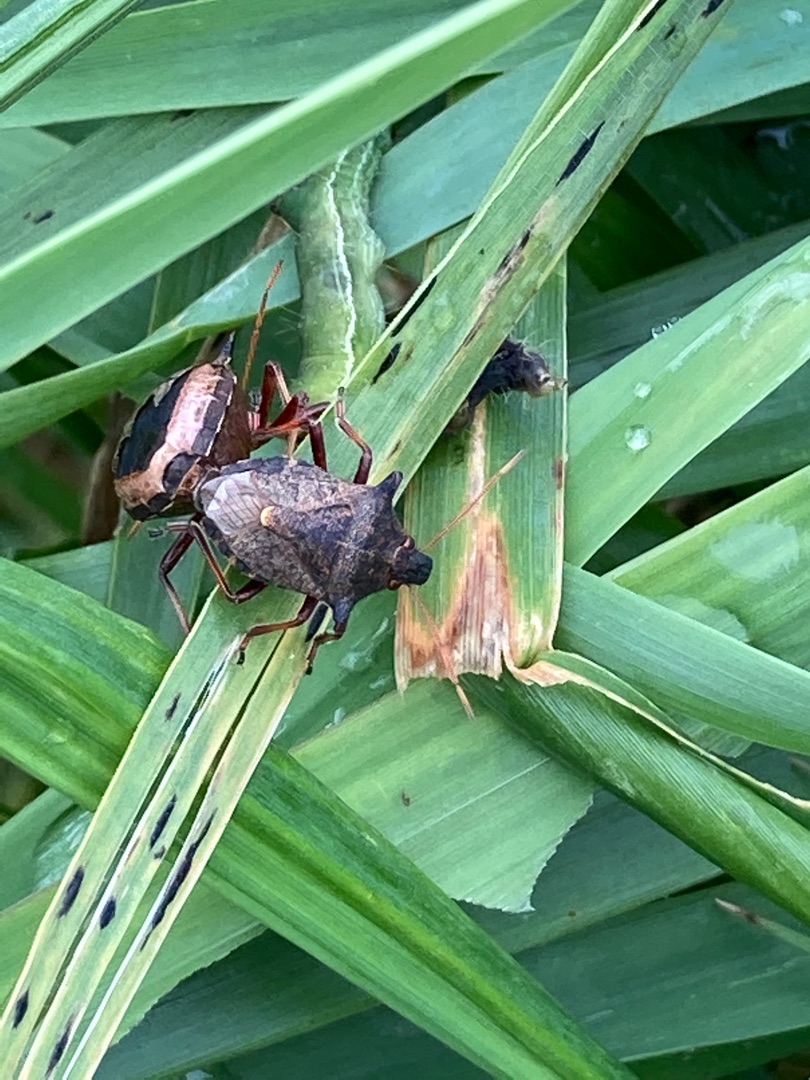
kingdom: Animalia
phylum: Arthropoda
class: Insecta
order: Hemiptera
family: Pentatomidae
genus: Picromerus
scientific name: Picromerus bidens
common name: Torntæge
